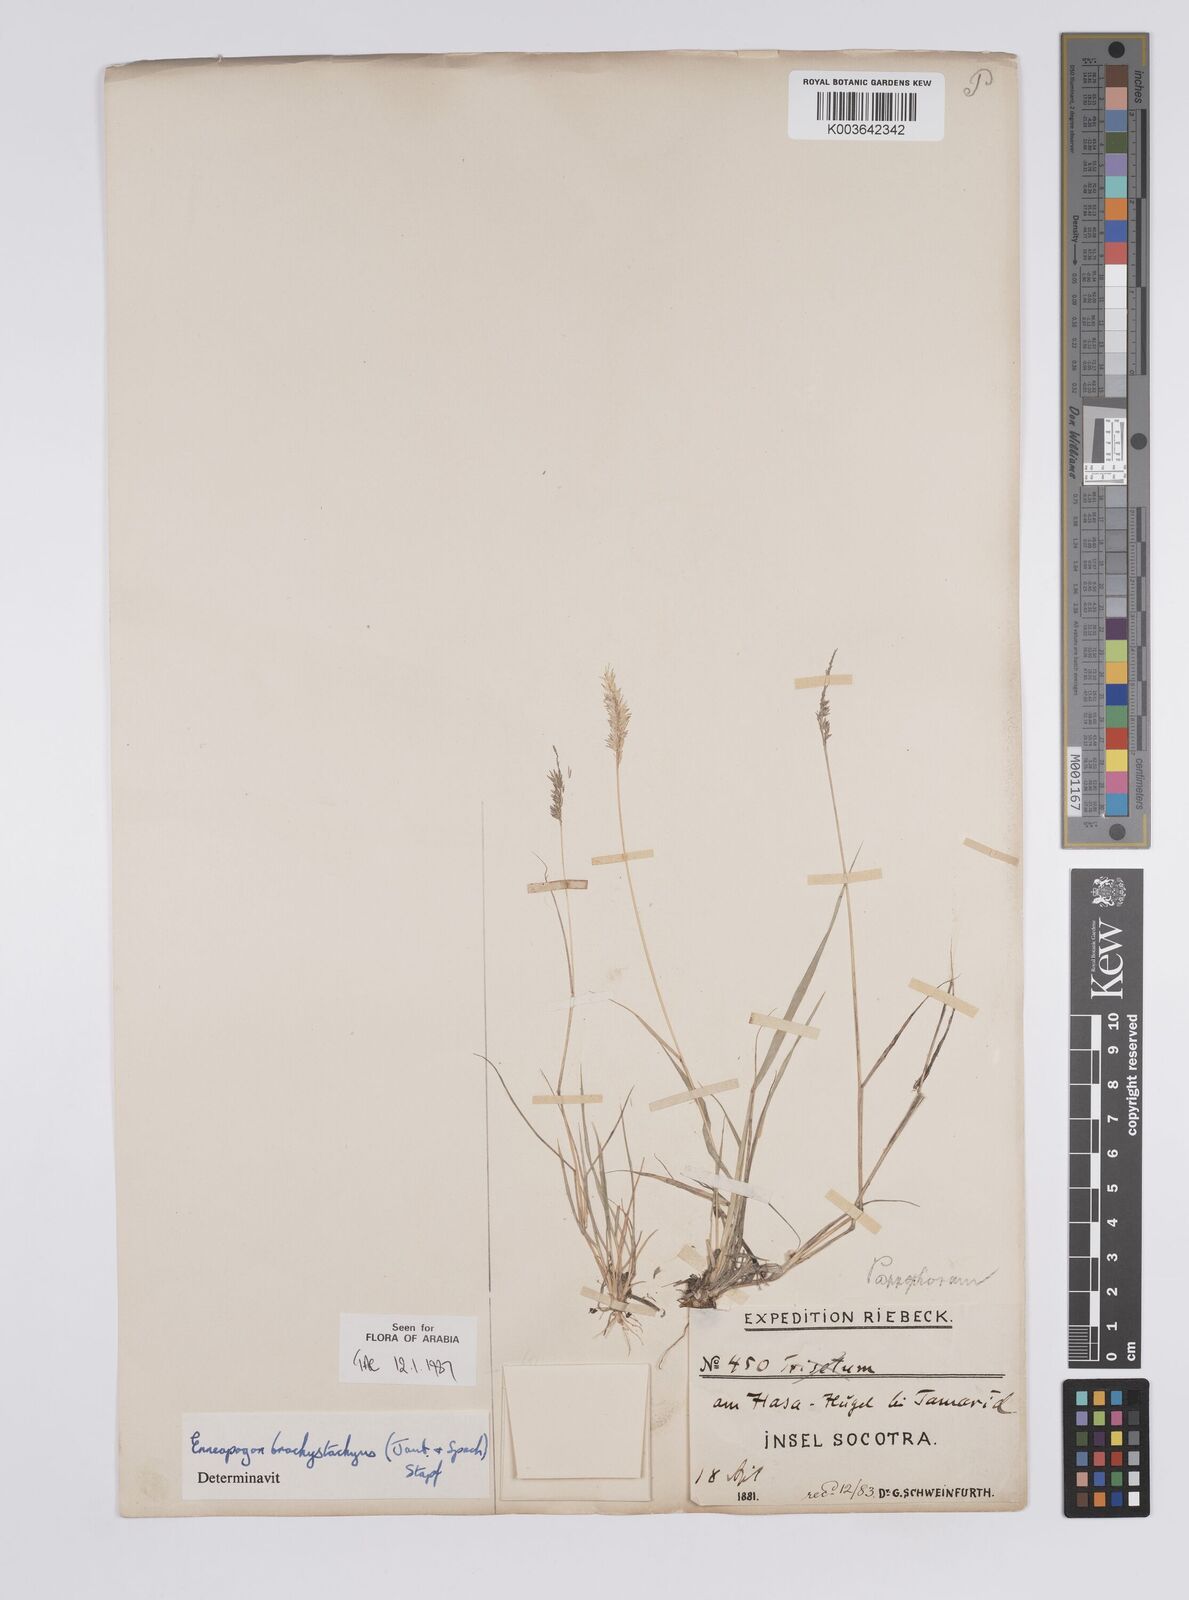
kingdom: Plantae
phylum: Tracheophyta
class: Liliopsida
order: Poales
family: Poaceae
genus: Enneapogon
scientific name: Enneapogon desvauxii
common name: Feather pappus grass
